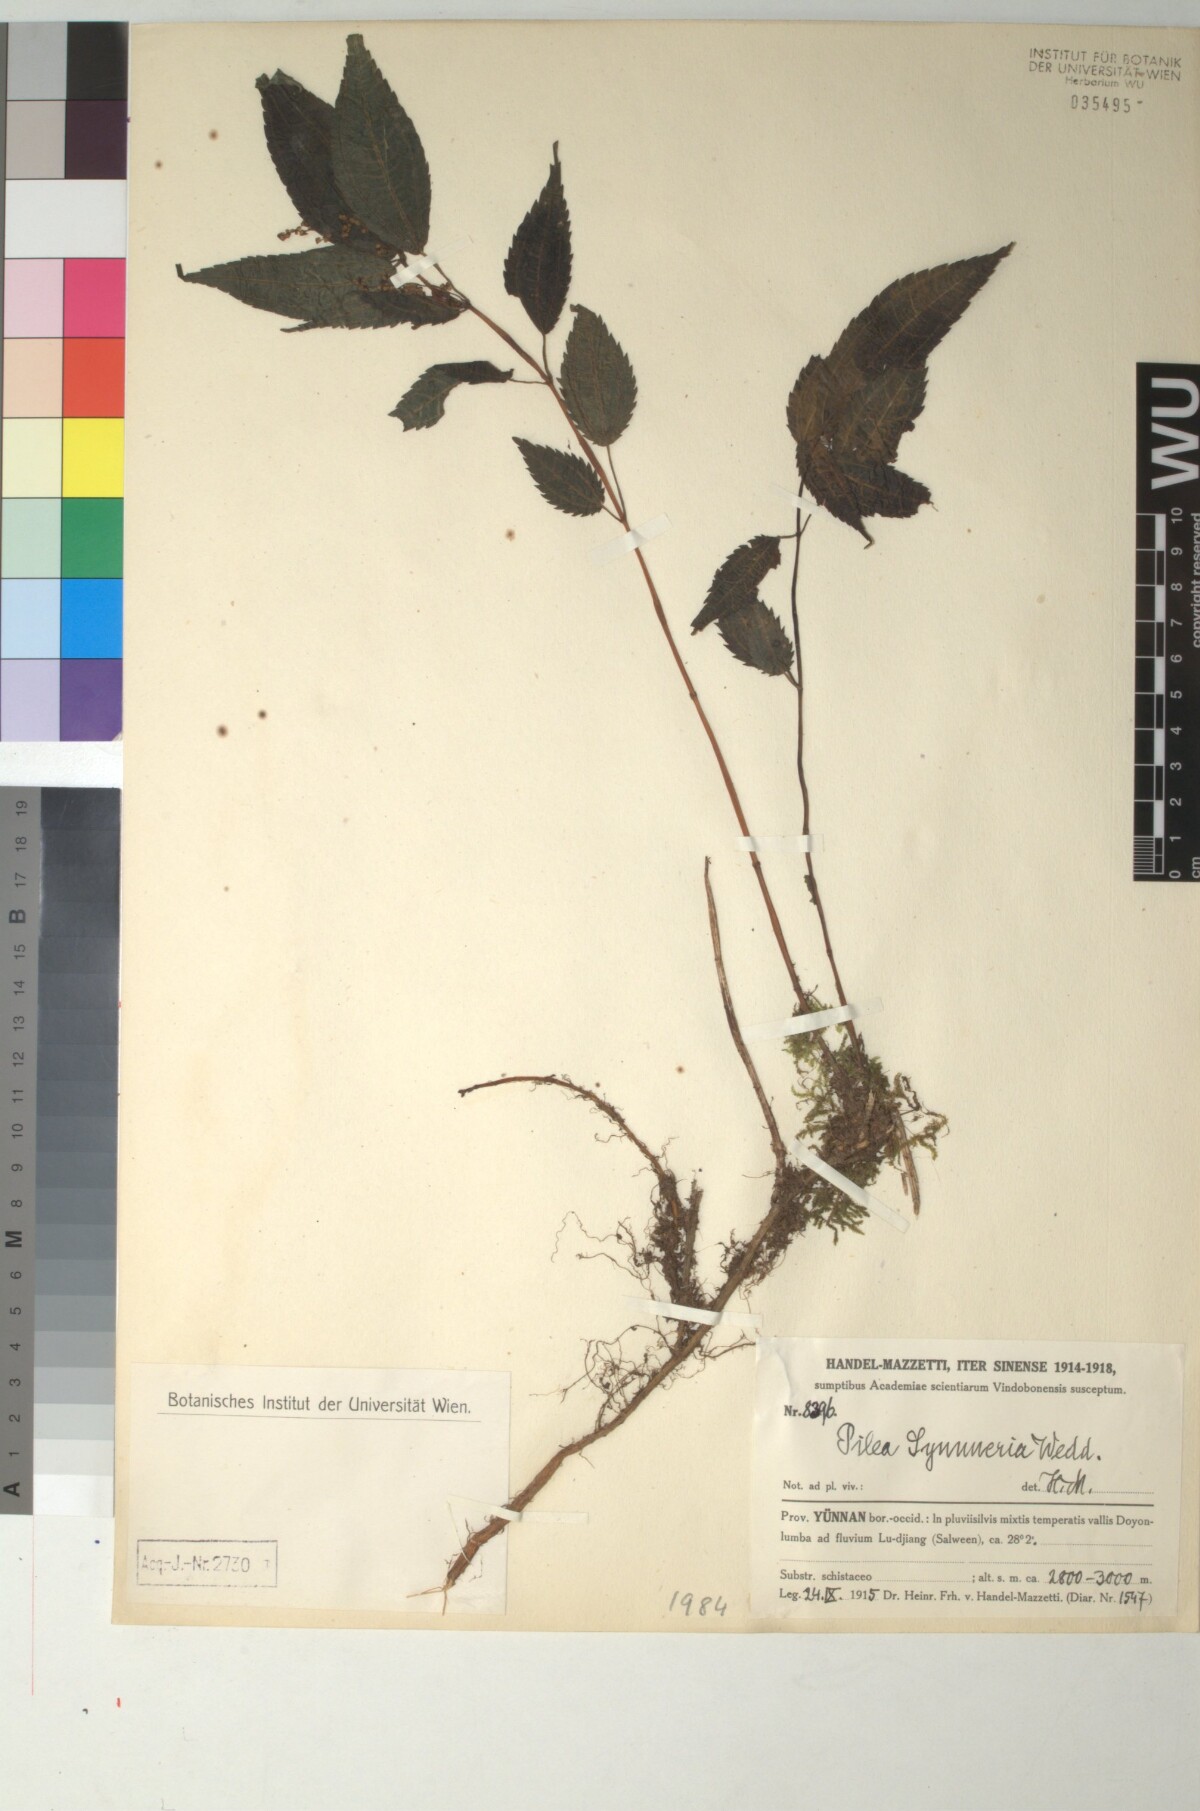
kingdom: Plantae
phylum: Tracheophyta
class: Magnoliopsida
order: Rosales
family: Urticaceae
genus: Pilea
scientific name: Pilea symmeria
